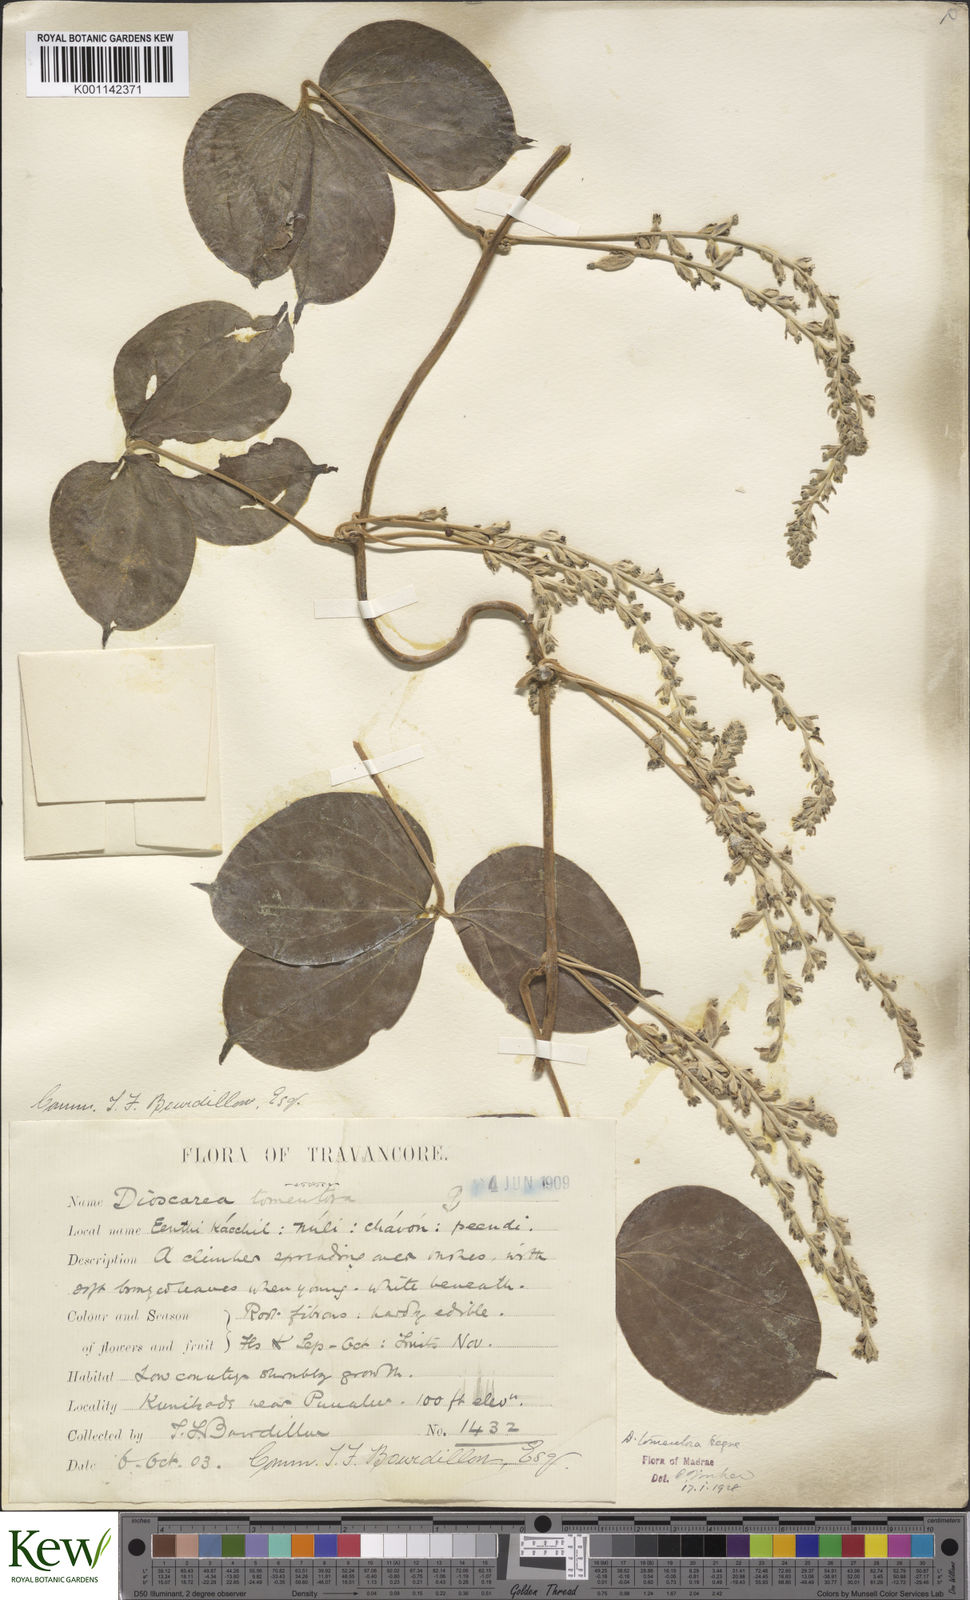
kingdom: Plantae
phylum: Tracheophyta
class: Liliopsida
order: Dioscoreales
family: Dioscoreaceae
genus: Dioscorea
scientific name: Dioscorea
